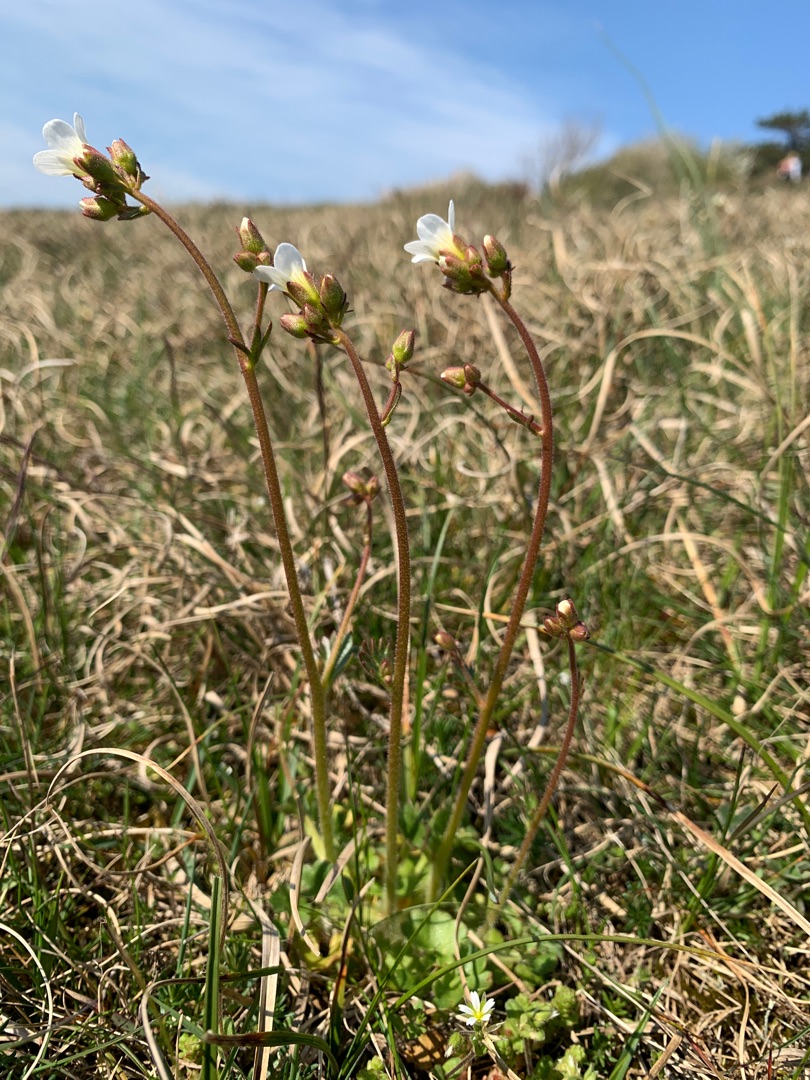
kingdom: Plantae
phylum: Tracheophyta
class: Magnoliopsida
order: Saxifragales
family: Saxifragaceae
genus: Saxifraga
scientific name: Saxifraga granulata
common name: Kornet stenbræk
